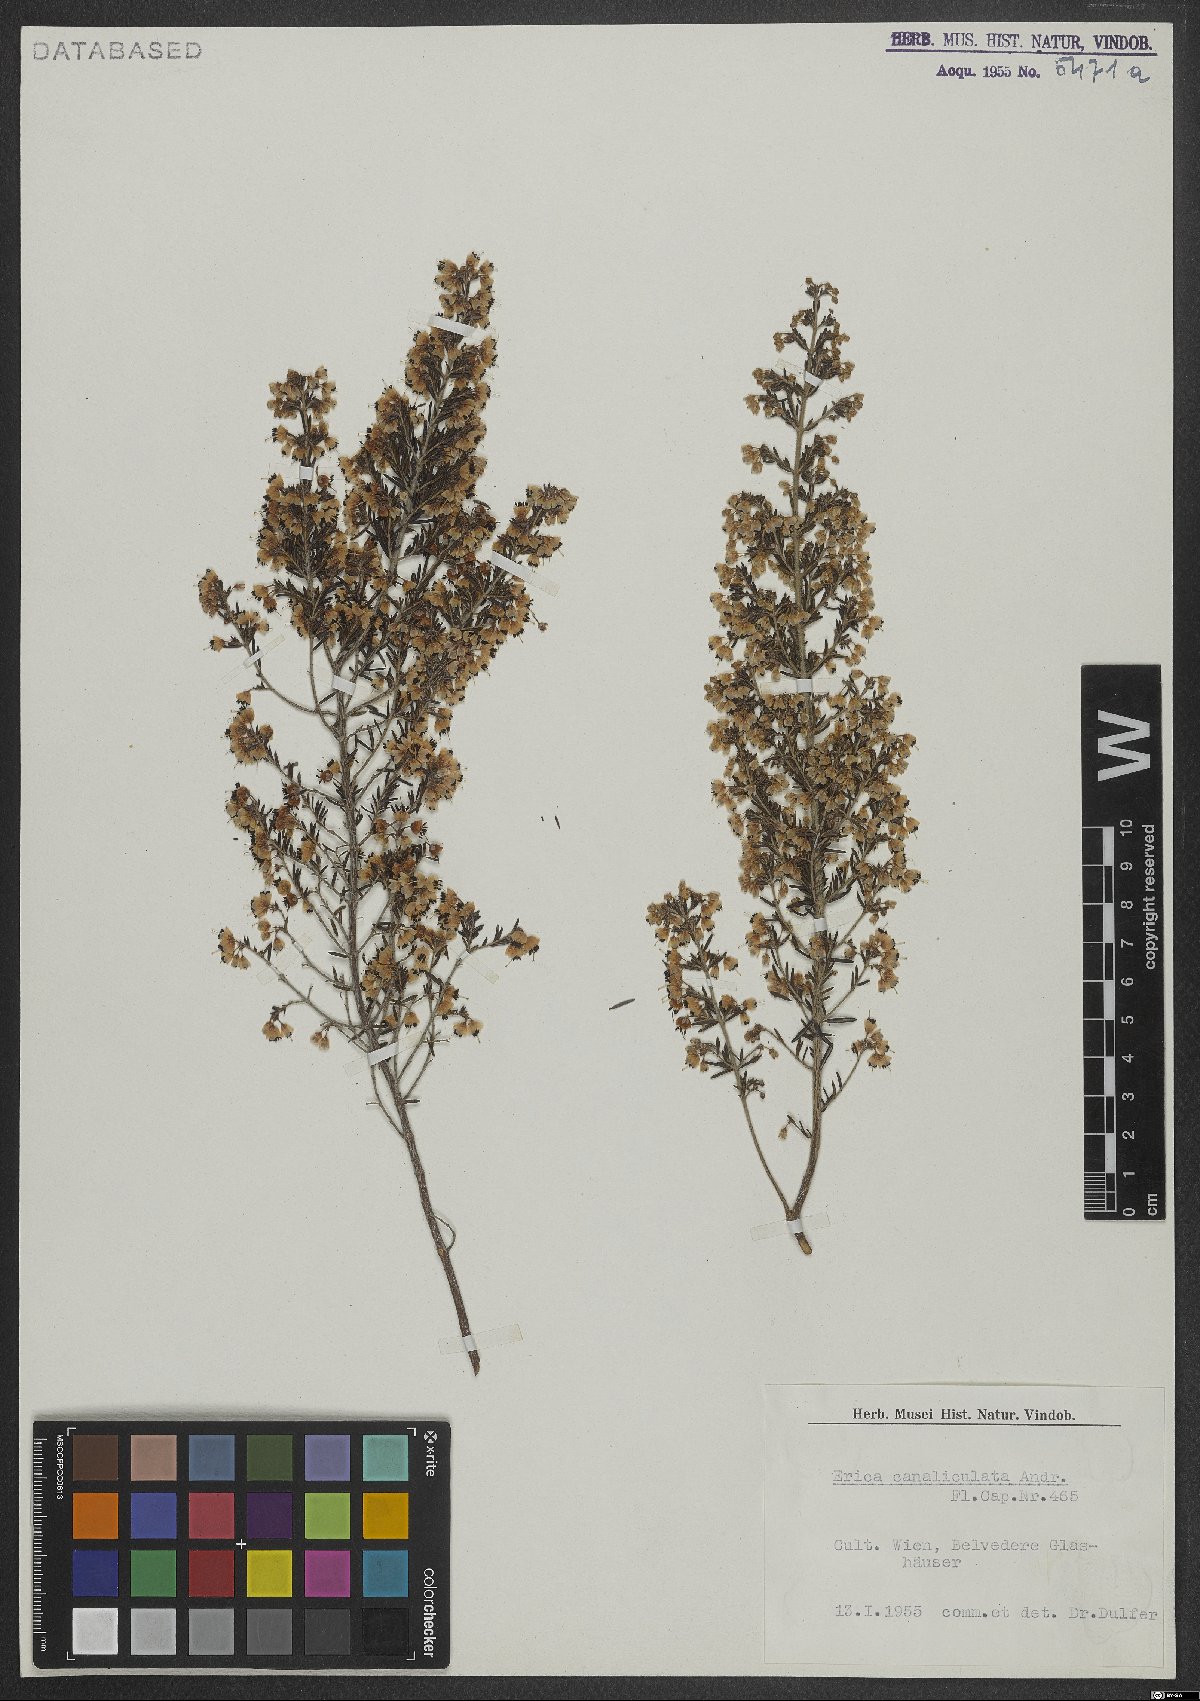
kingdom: Plantae
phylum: Tracheophyta
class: Magnoliopsida
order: Ericales
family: Ericaceae
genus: Erica
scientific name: Erica canaliculata
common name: Hairy grey heather
